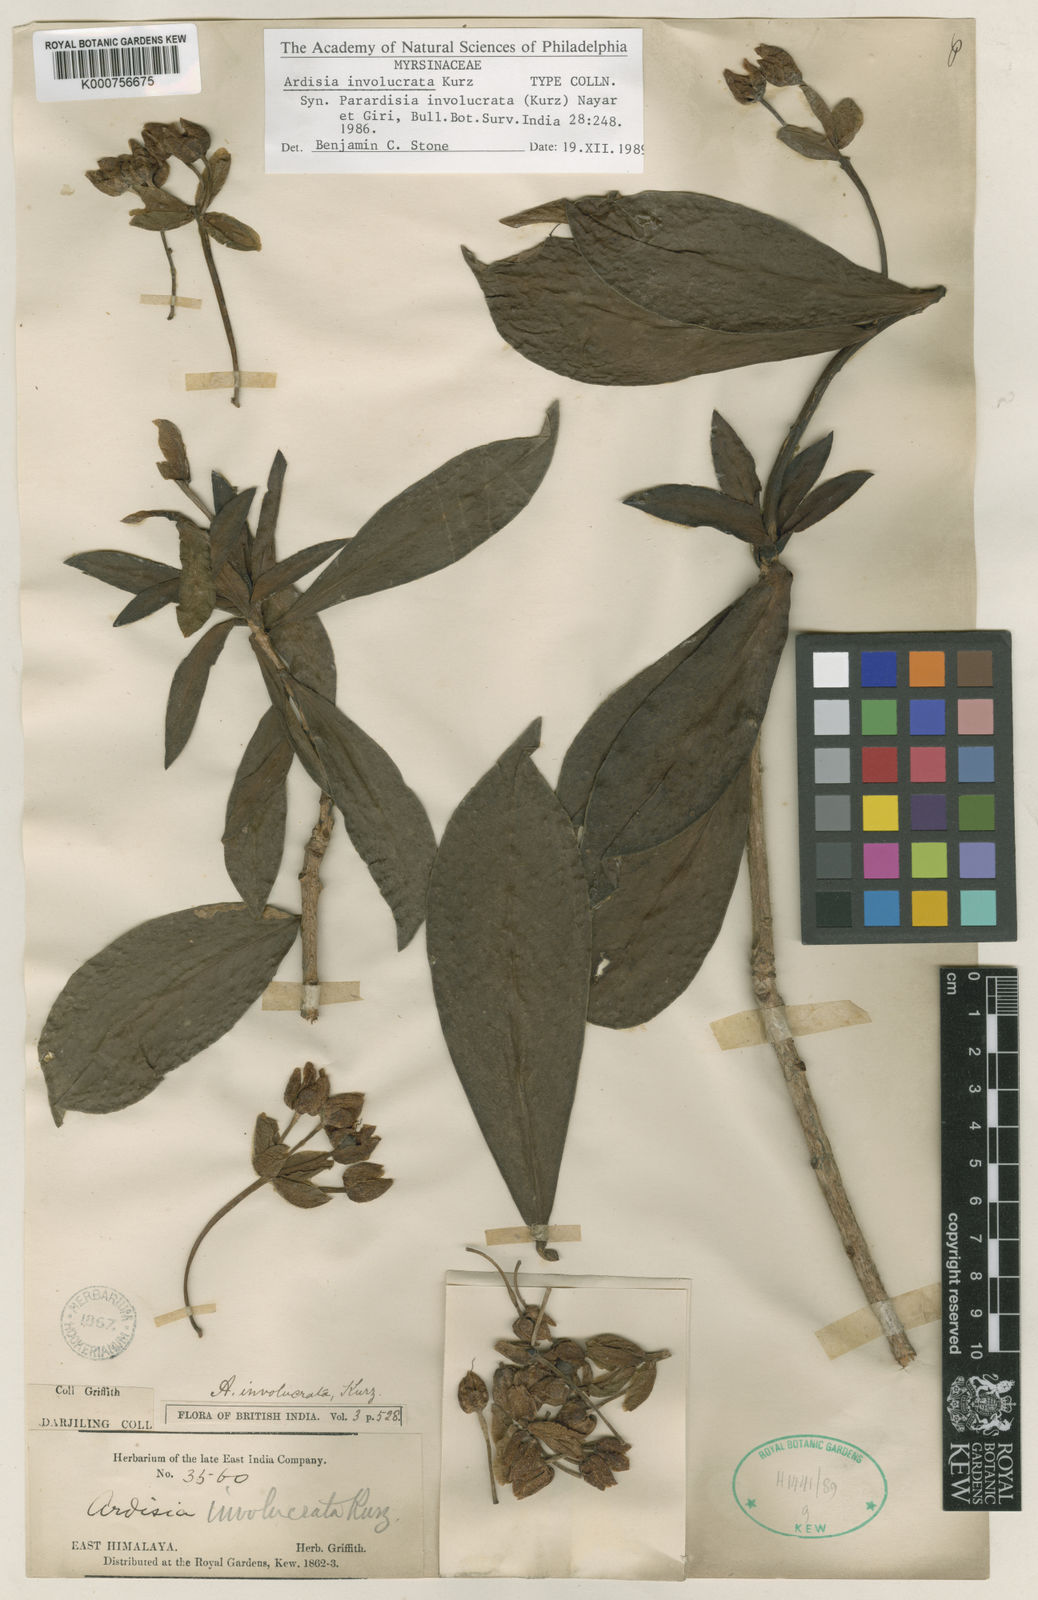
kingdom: Plantae
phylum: Tracheophyta
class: Magnoliopsida
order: Ericales
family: Primulaceae
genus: Ardisia
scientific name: Ardisia involucrata
